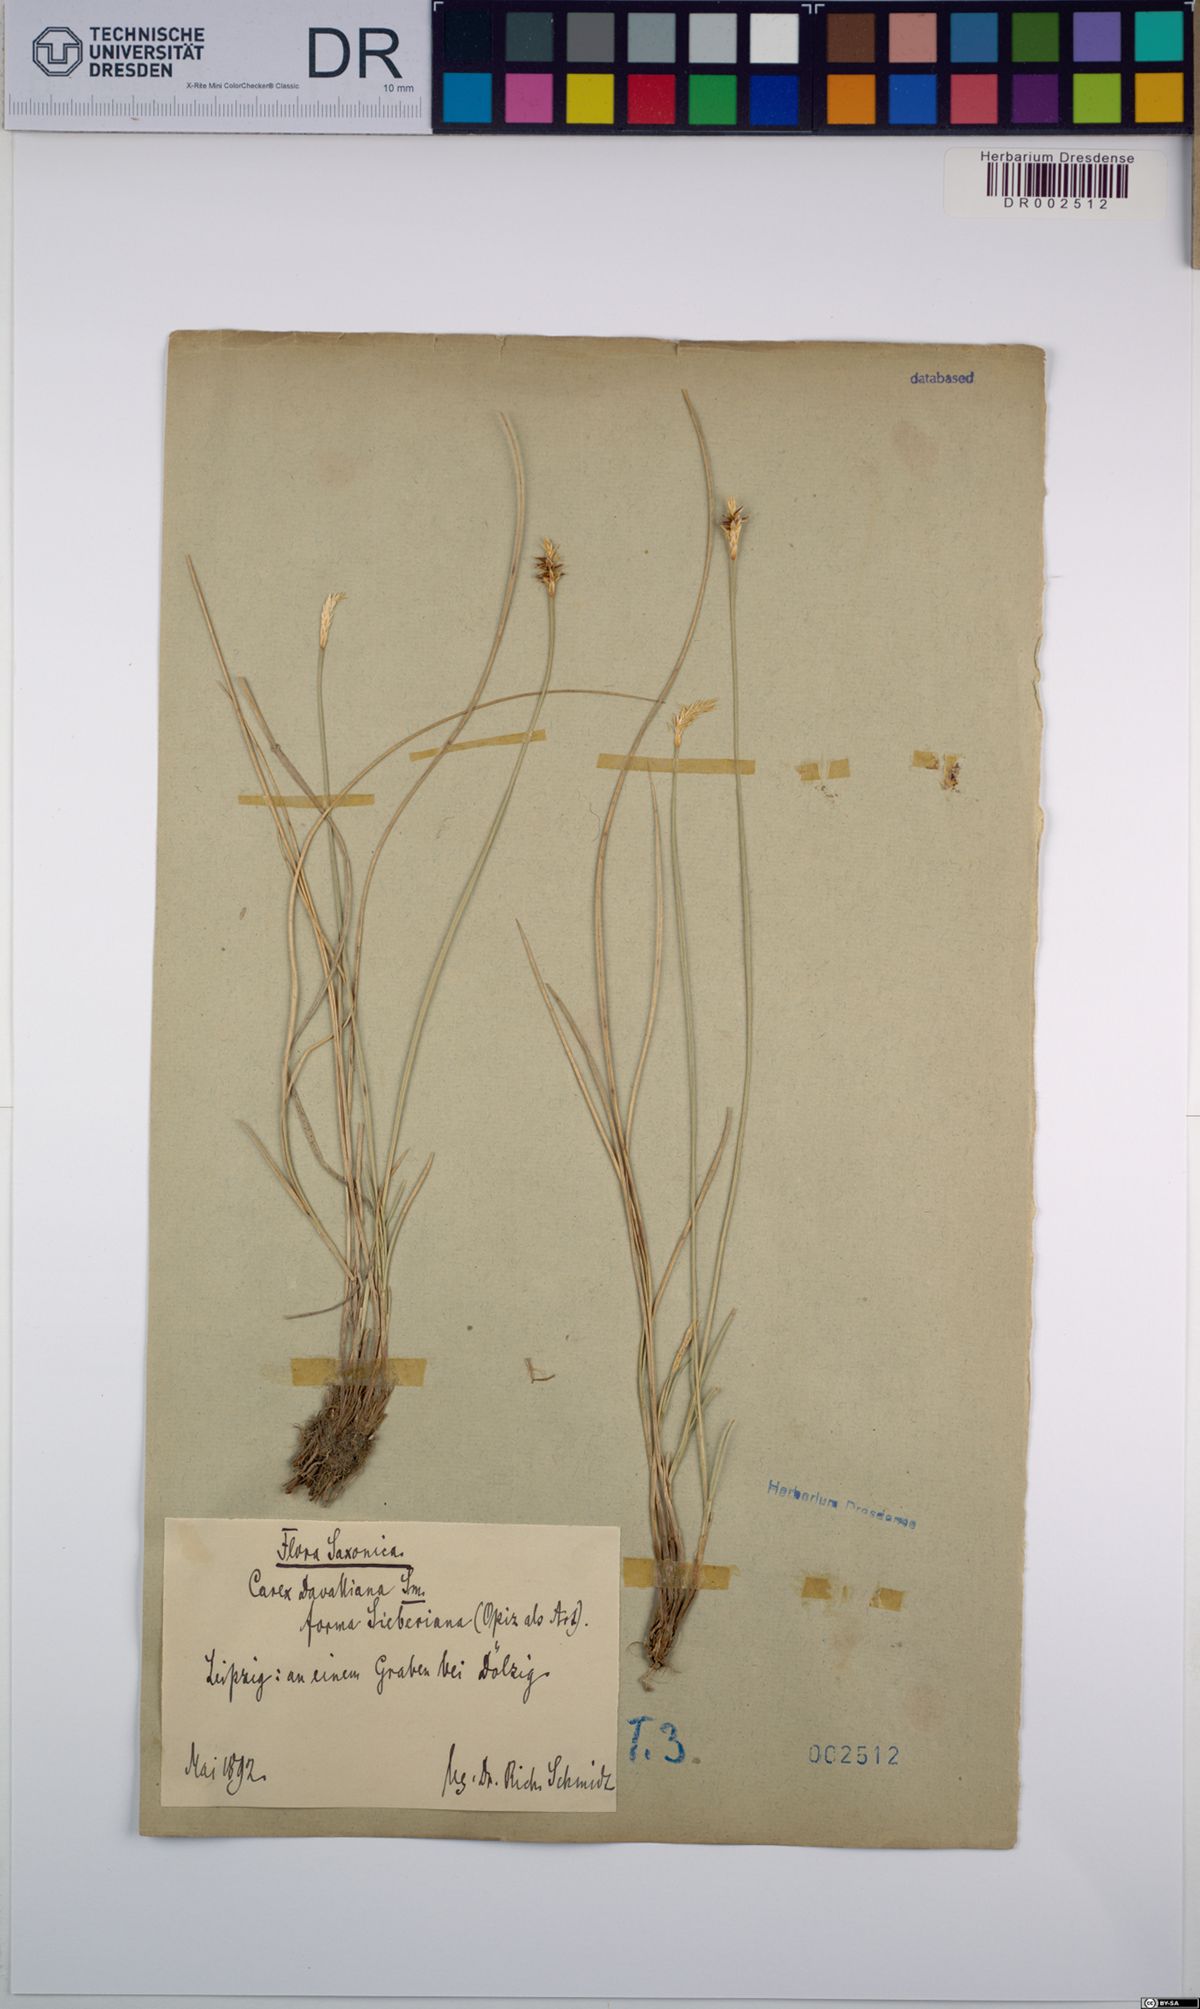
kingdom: Plantae
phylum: Tracheophyta
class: Liliopsida
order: Poales
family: Cyperaceae
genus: Carex
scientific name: Carex davalliana
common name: Davall's sedge
